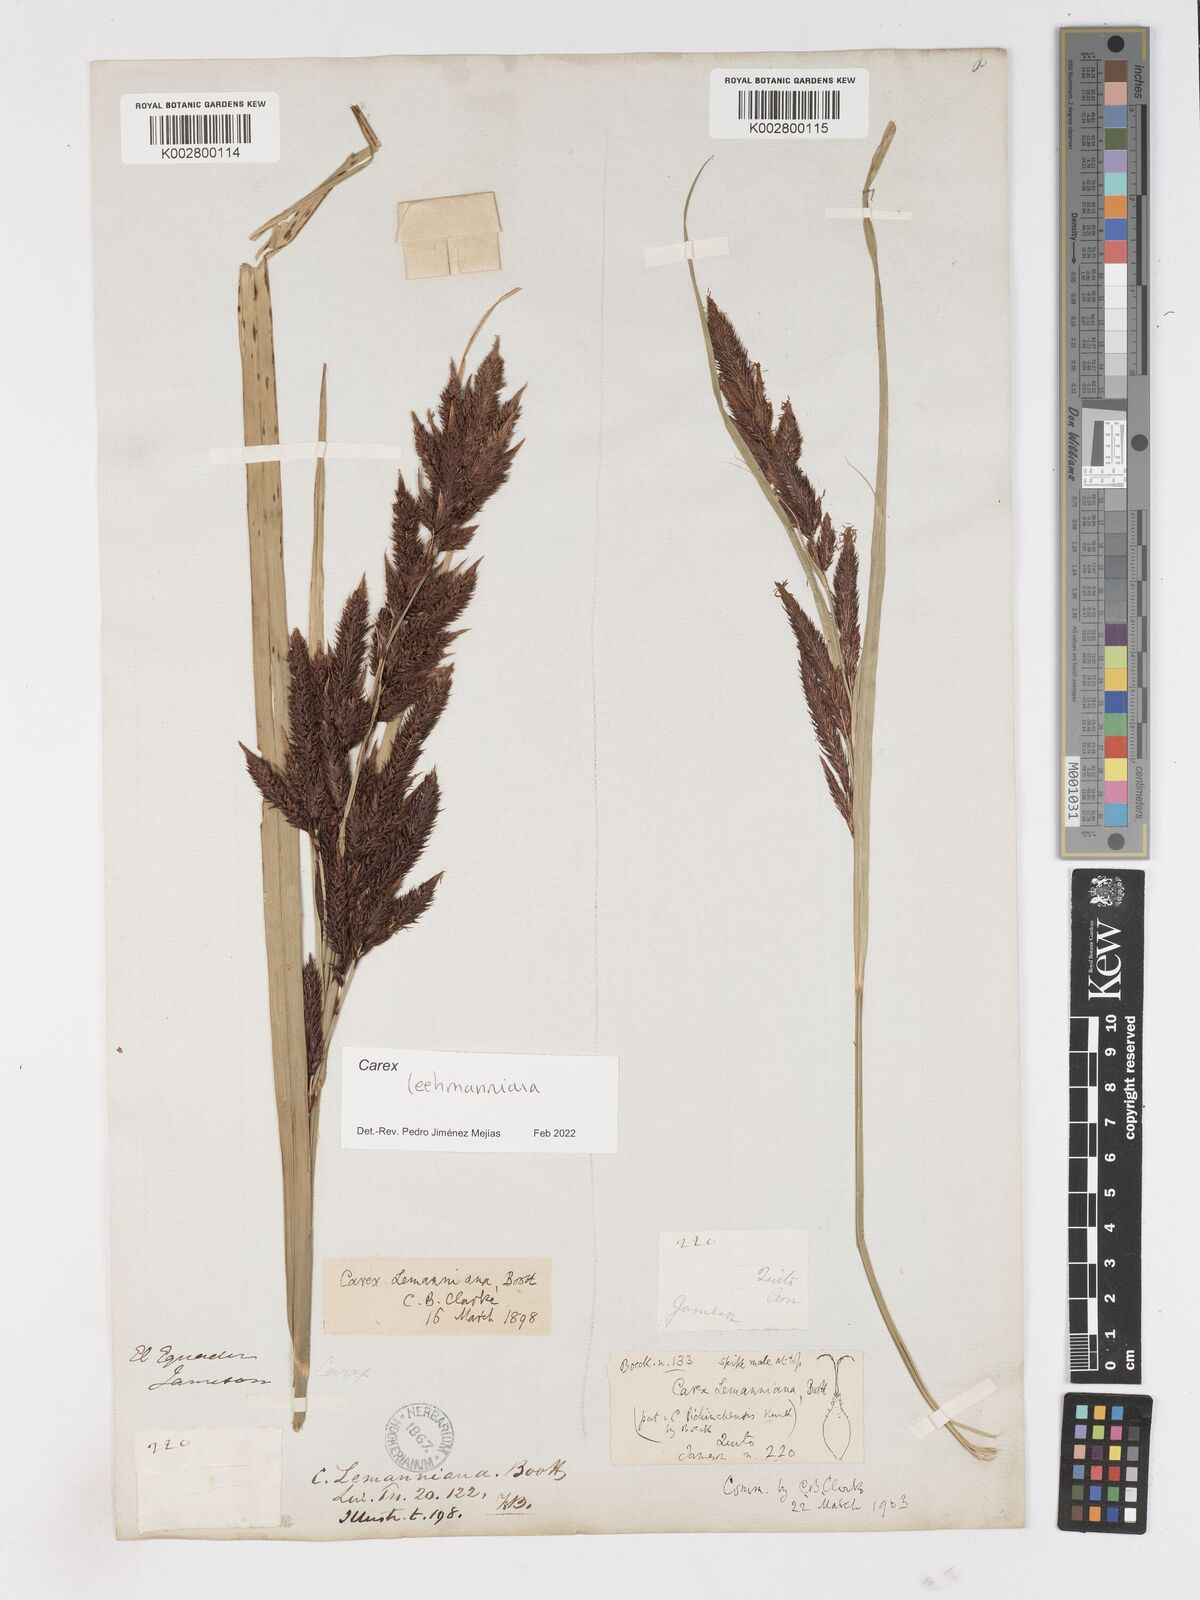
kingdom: Plantae
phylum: Tracheophyta
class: Liliopsida
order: Poales
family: Cyperaceae
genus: Carex
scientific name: Carex lemanniana
